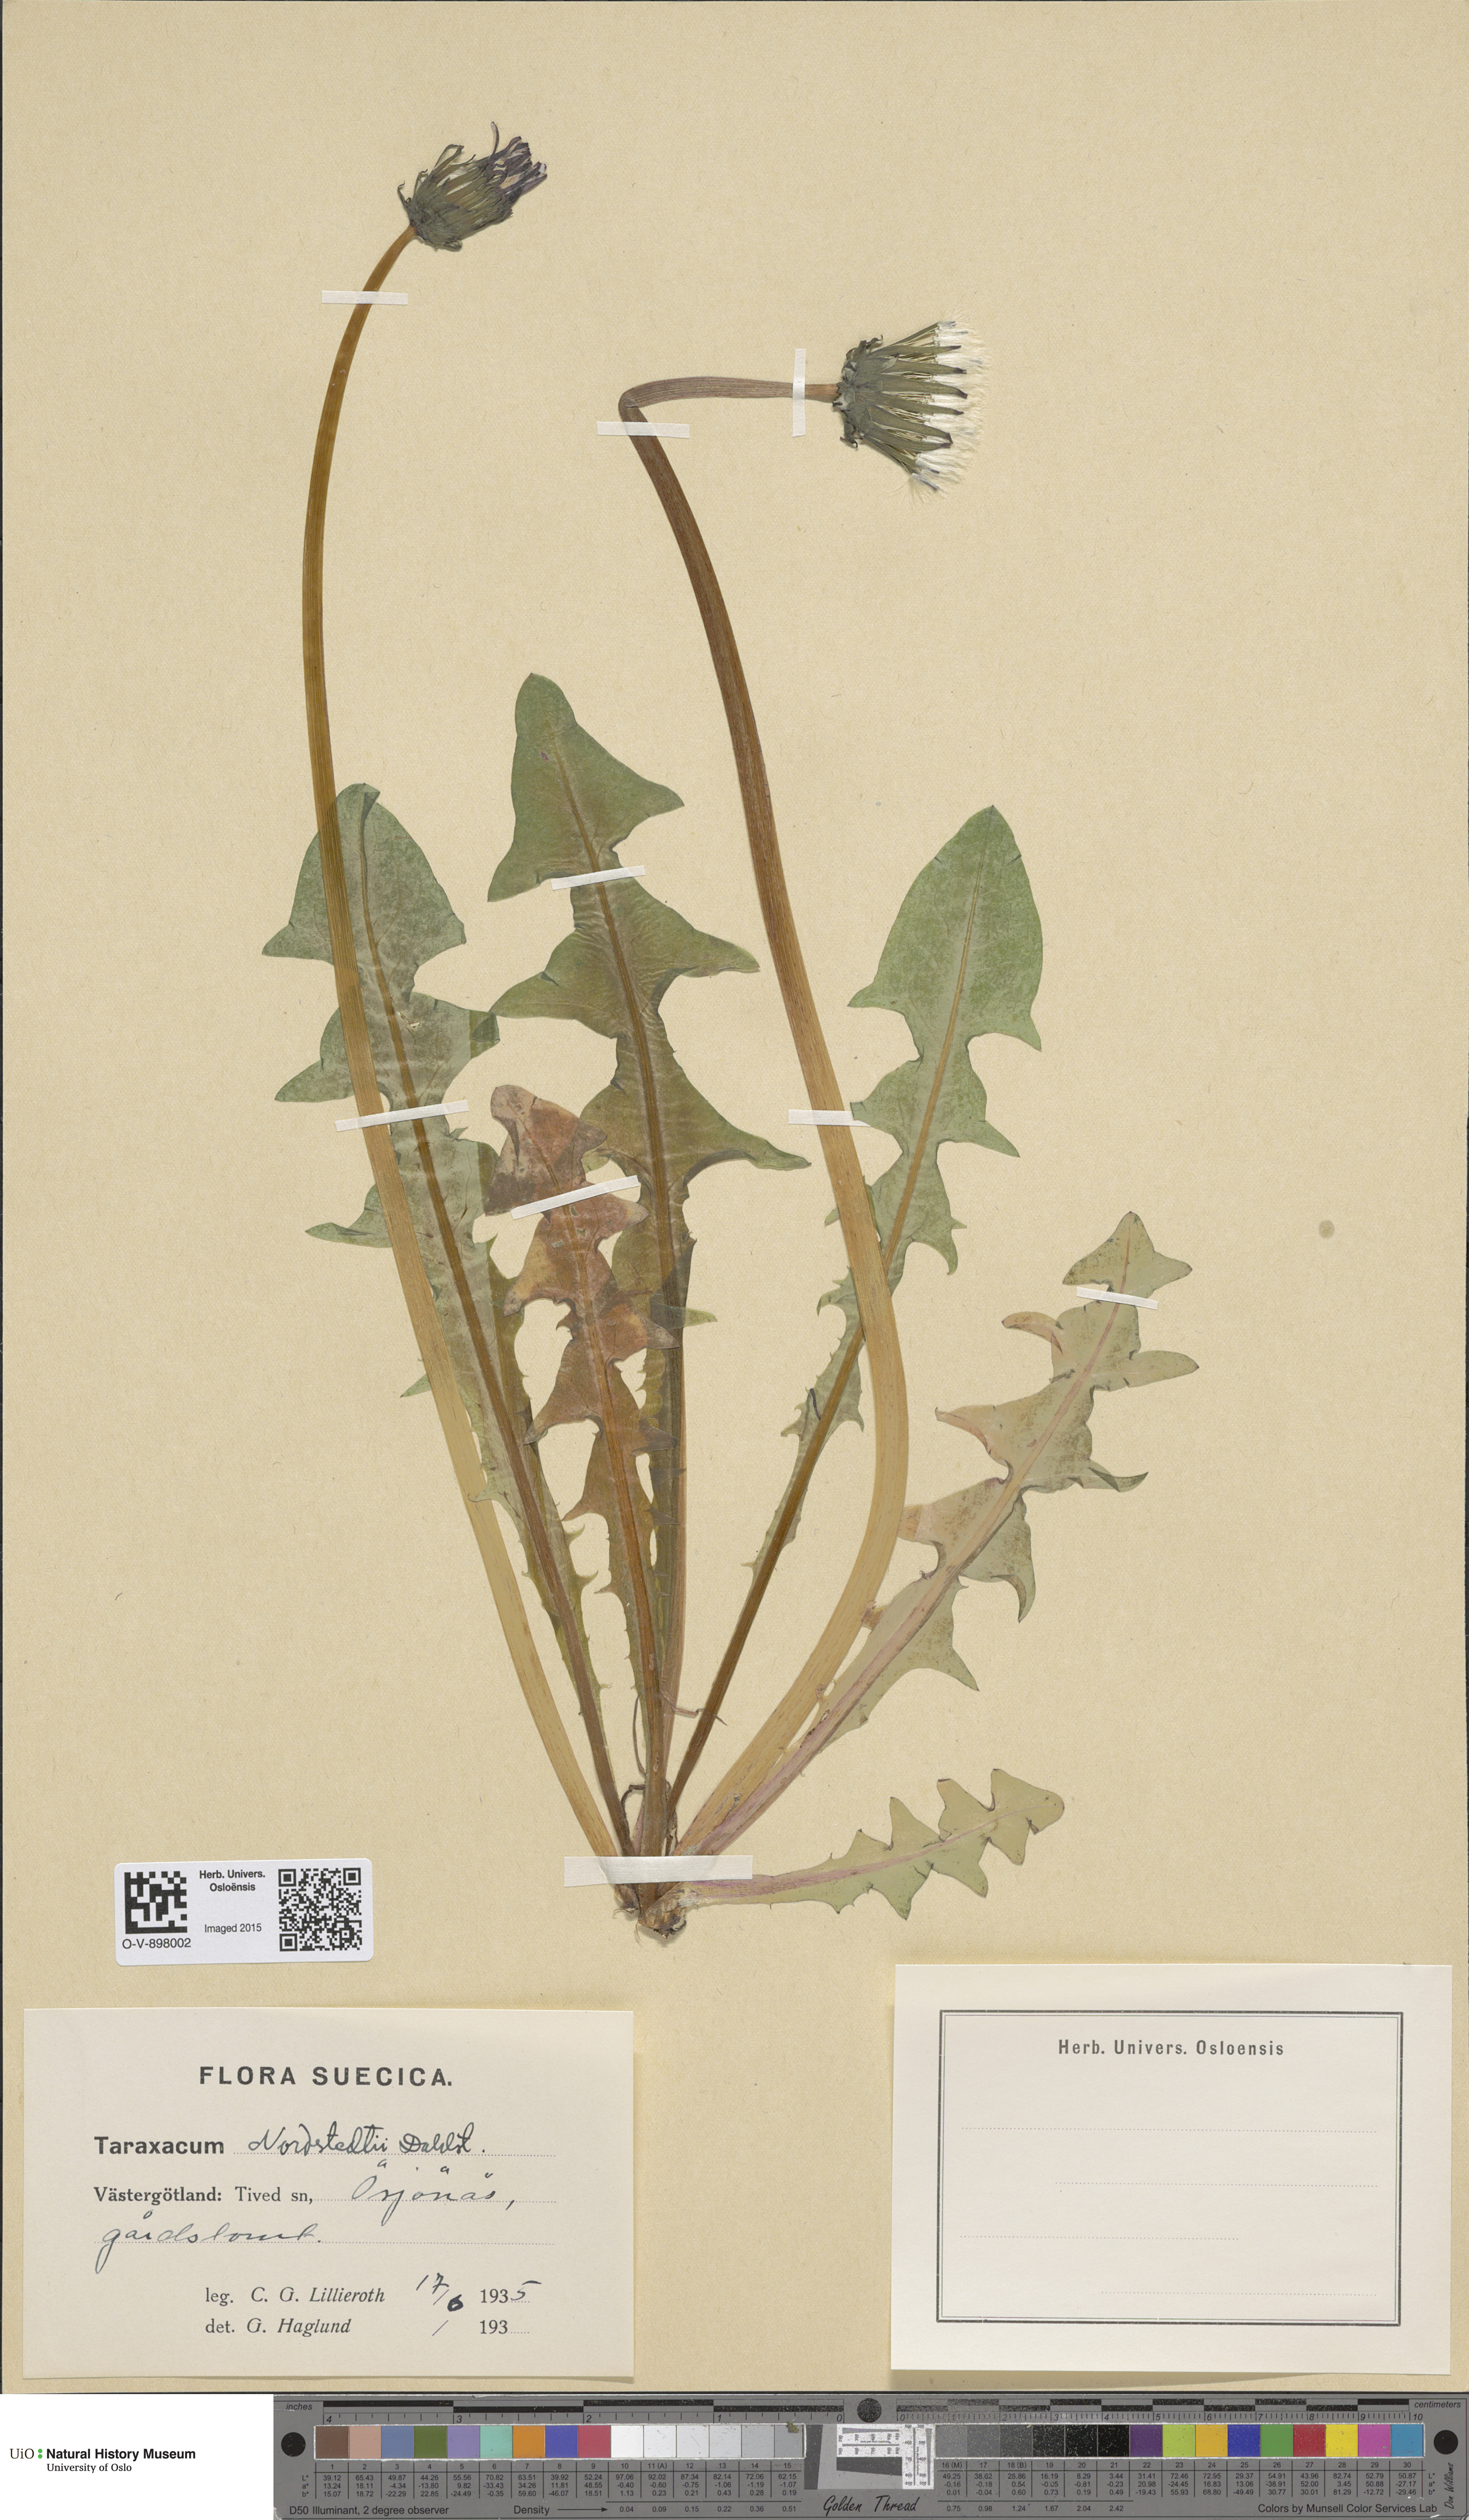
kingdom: Plantae
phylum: Tracheophyta
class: Magnoliopsida
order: Asterales
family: Asteraceae
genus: Taraxacum
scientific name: Taraxacum nordstedtii
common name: Nordstedt's dandelion
